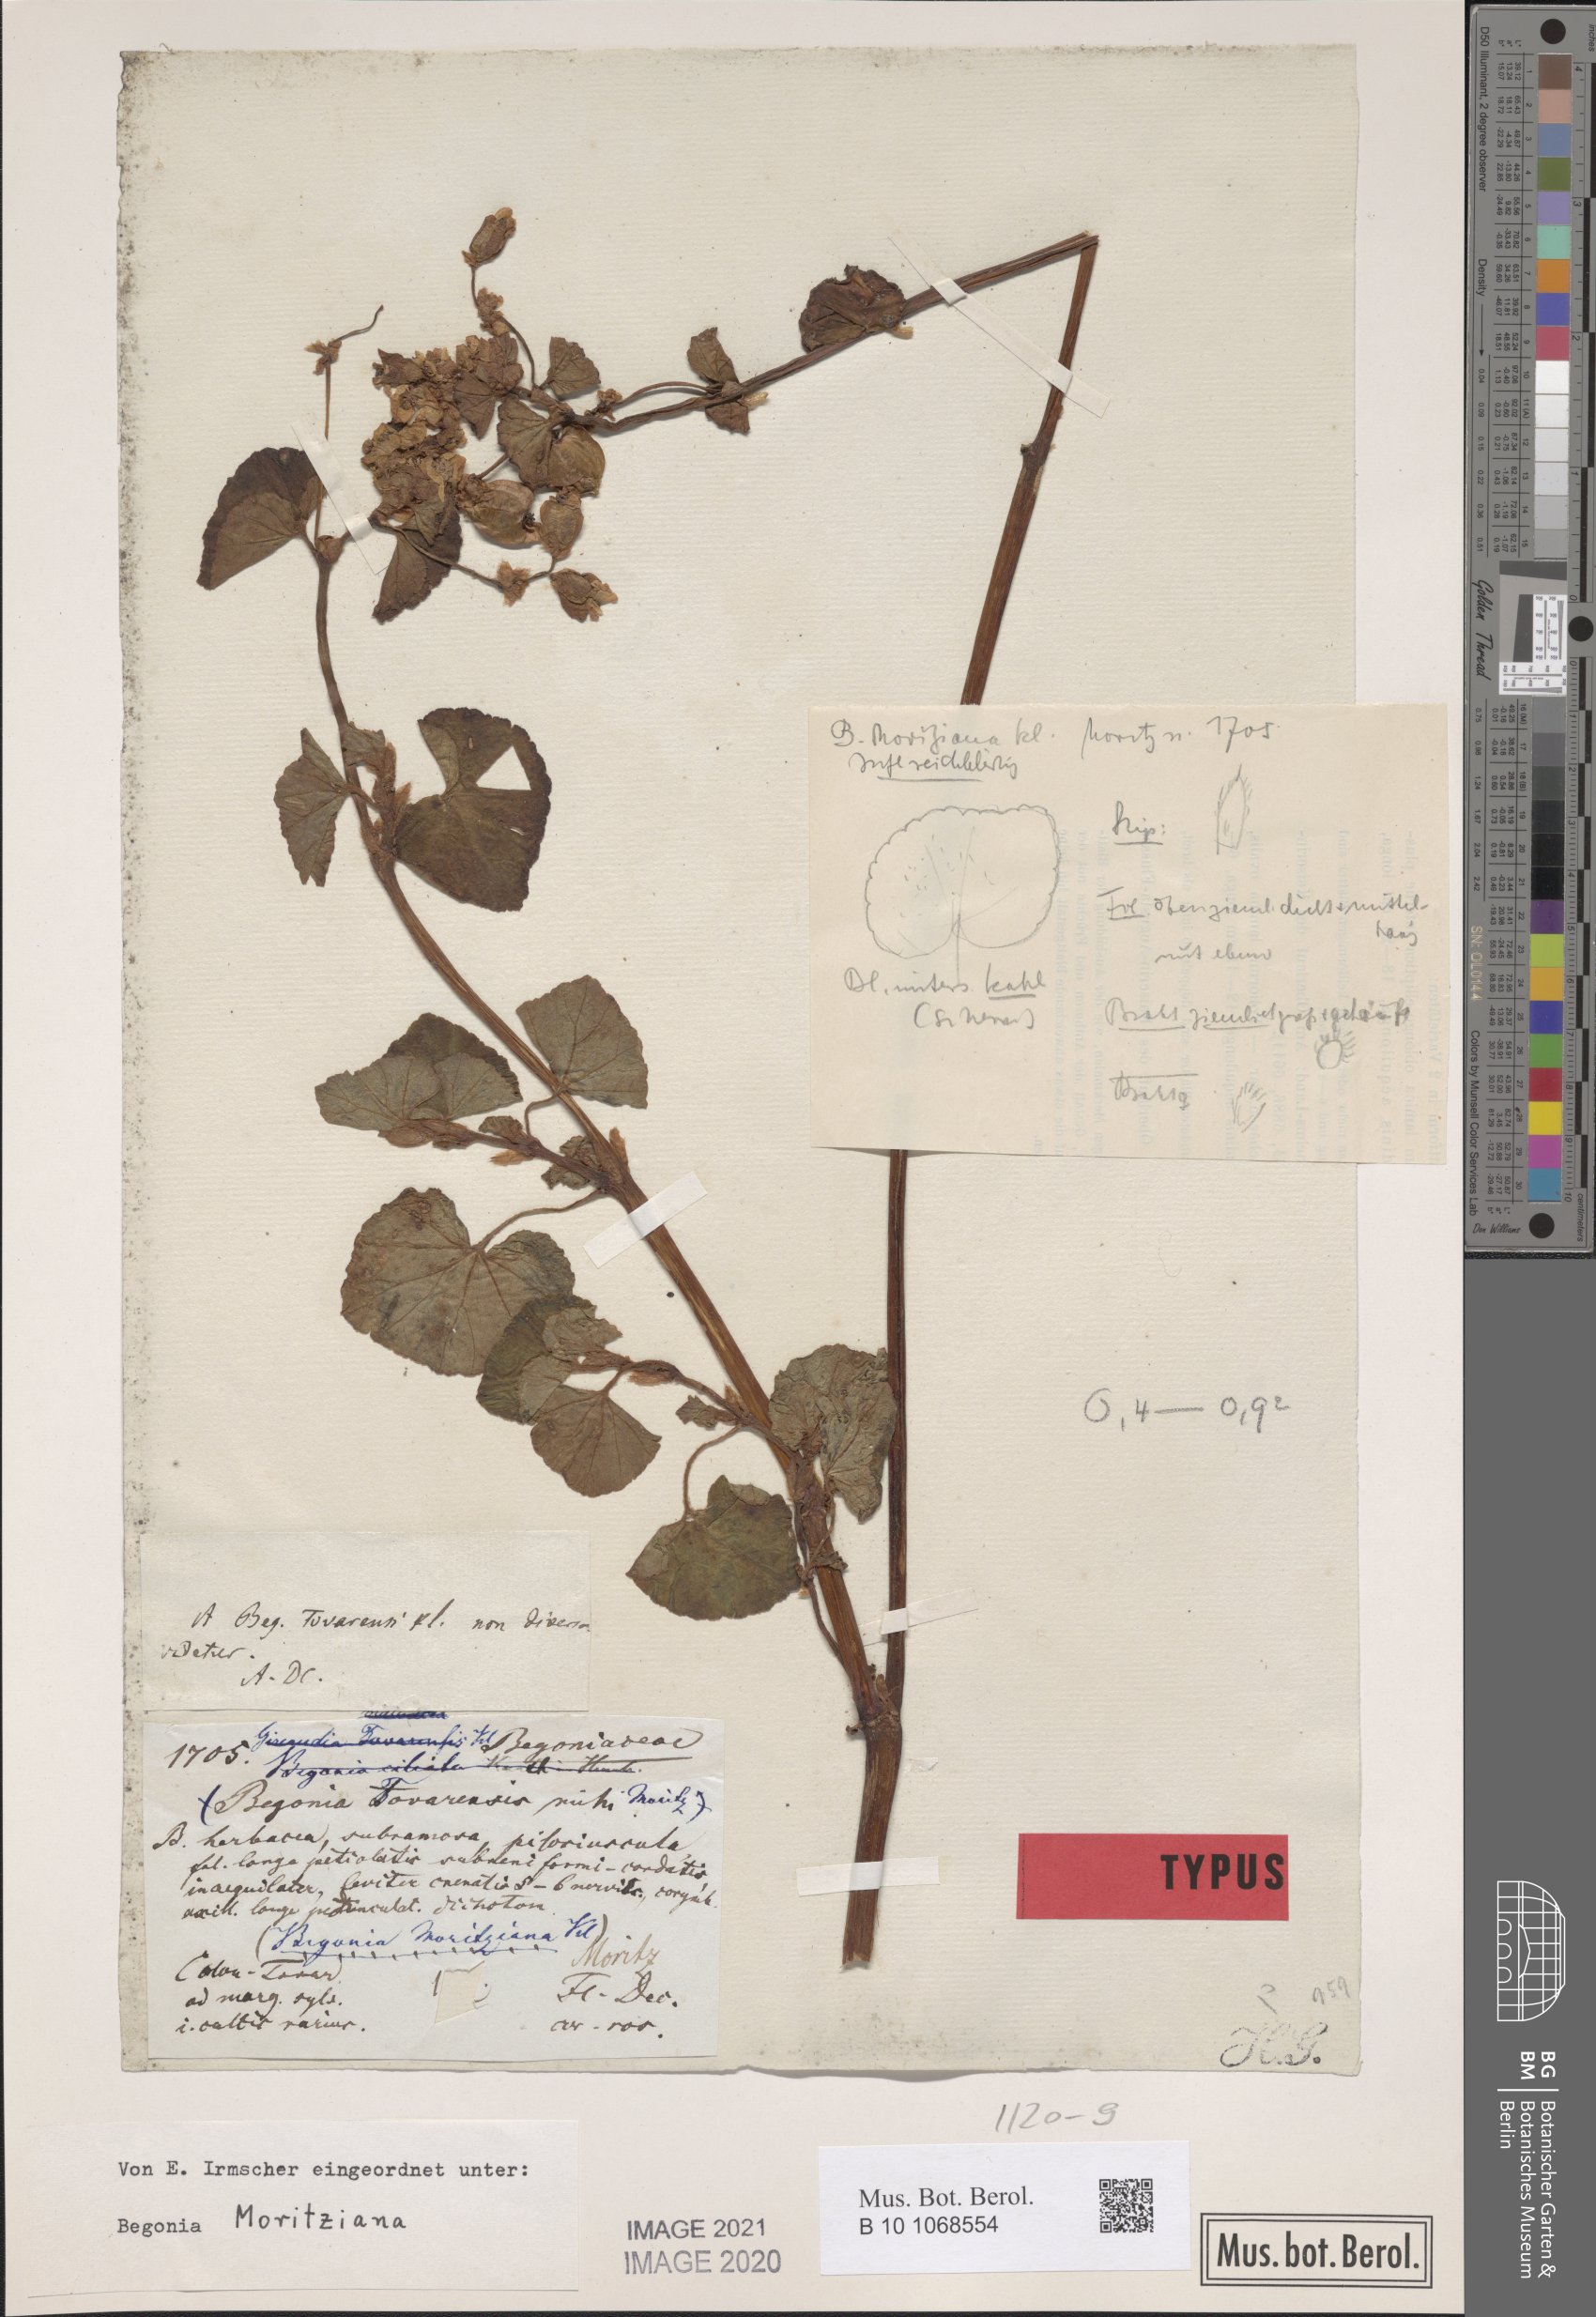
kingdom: Plantae
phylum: Tracheophyta
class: Magnoliopsida
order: Cucurbitales
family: Begoniaceae
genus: Begonia
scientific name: Begonia fischeri
